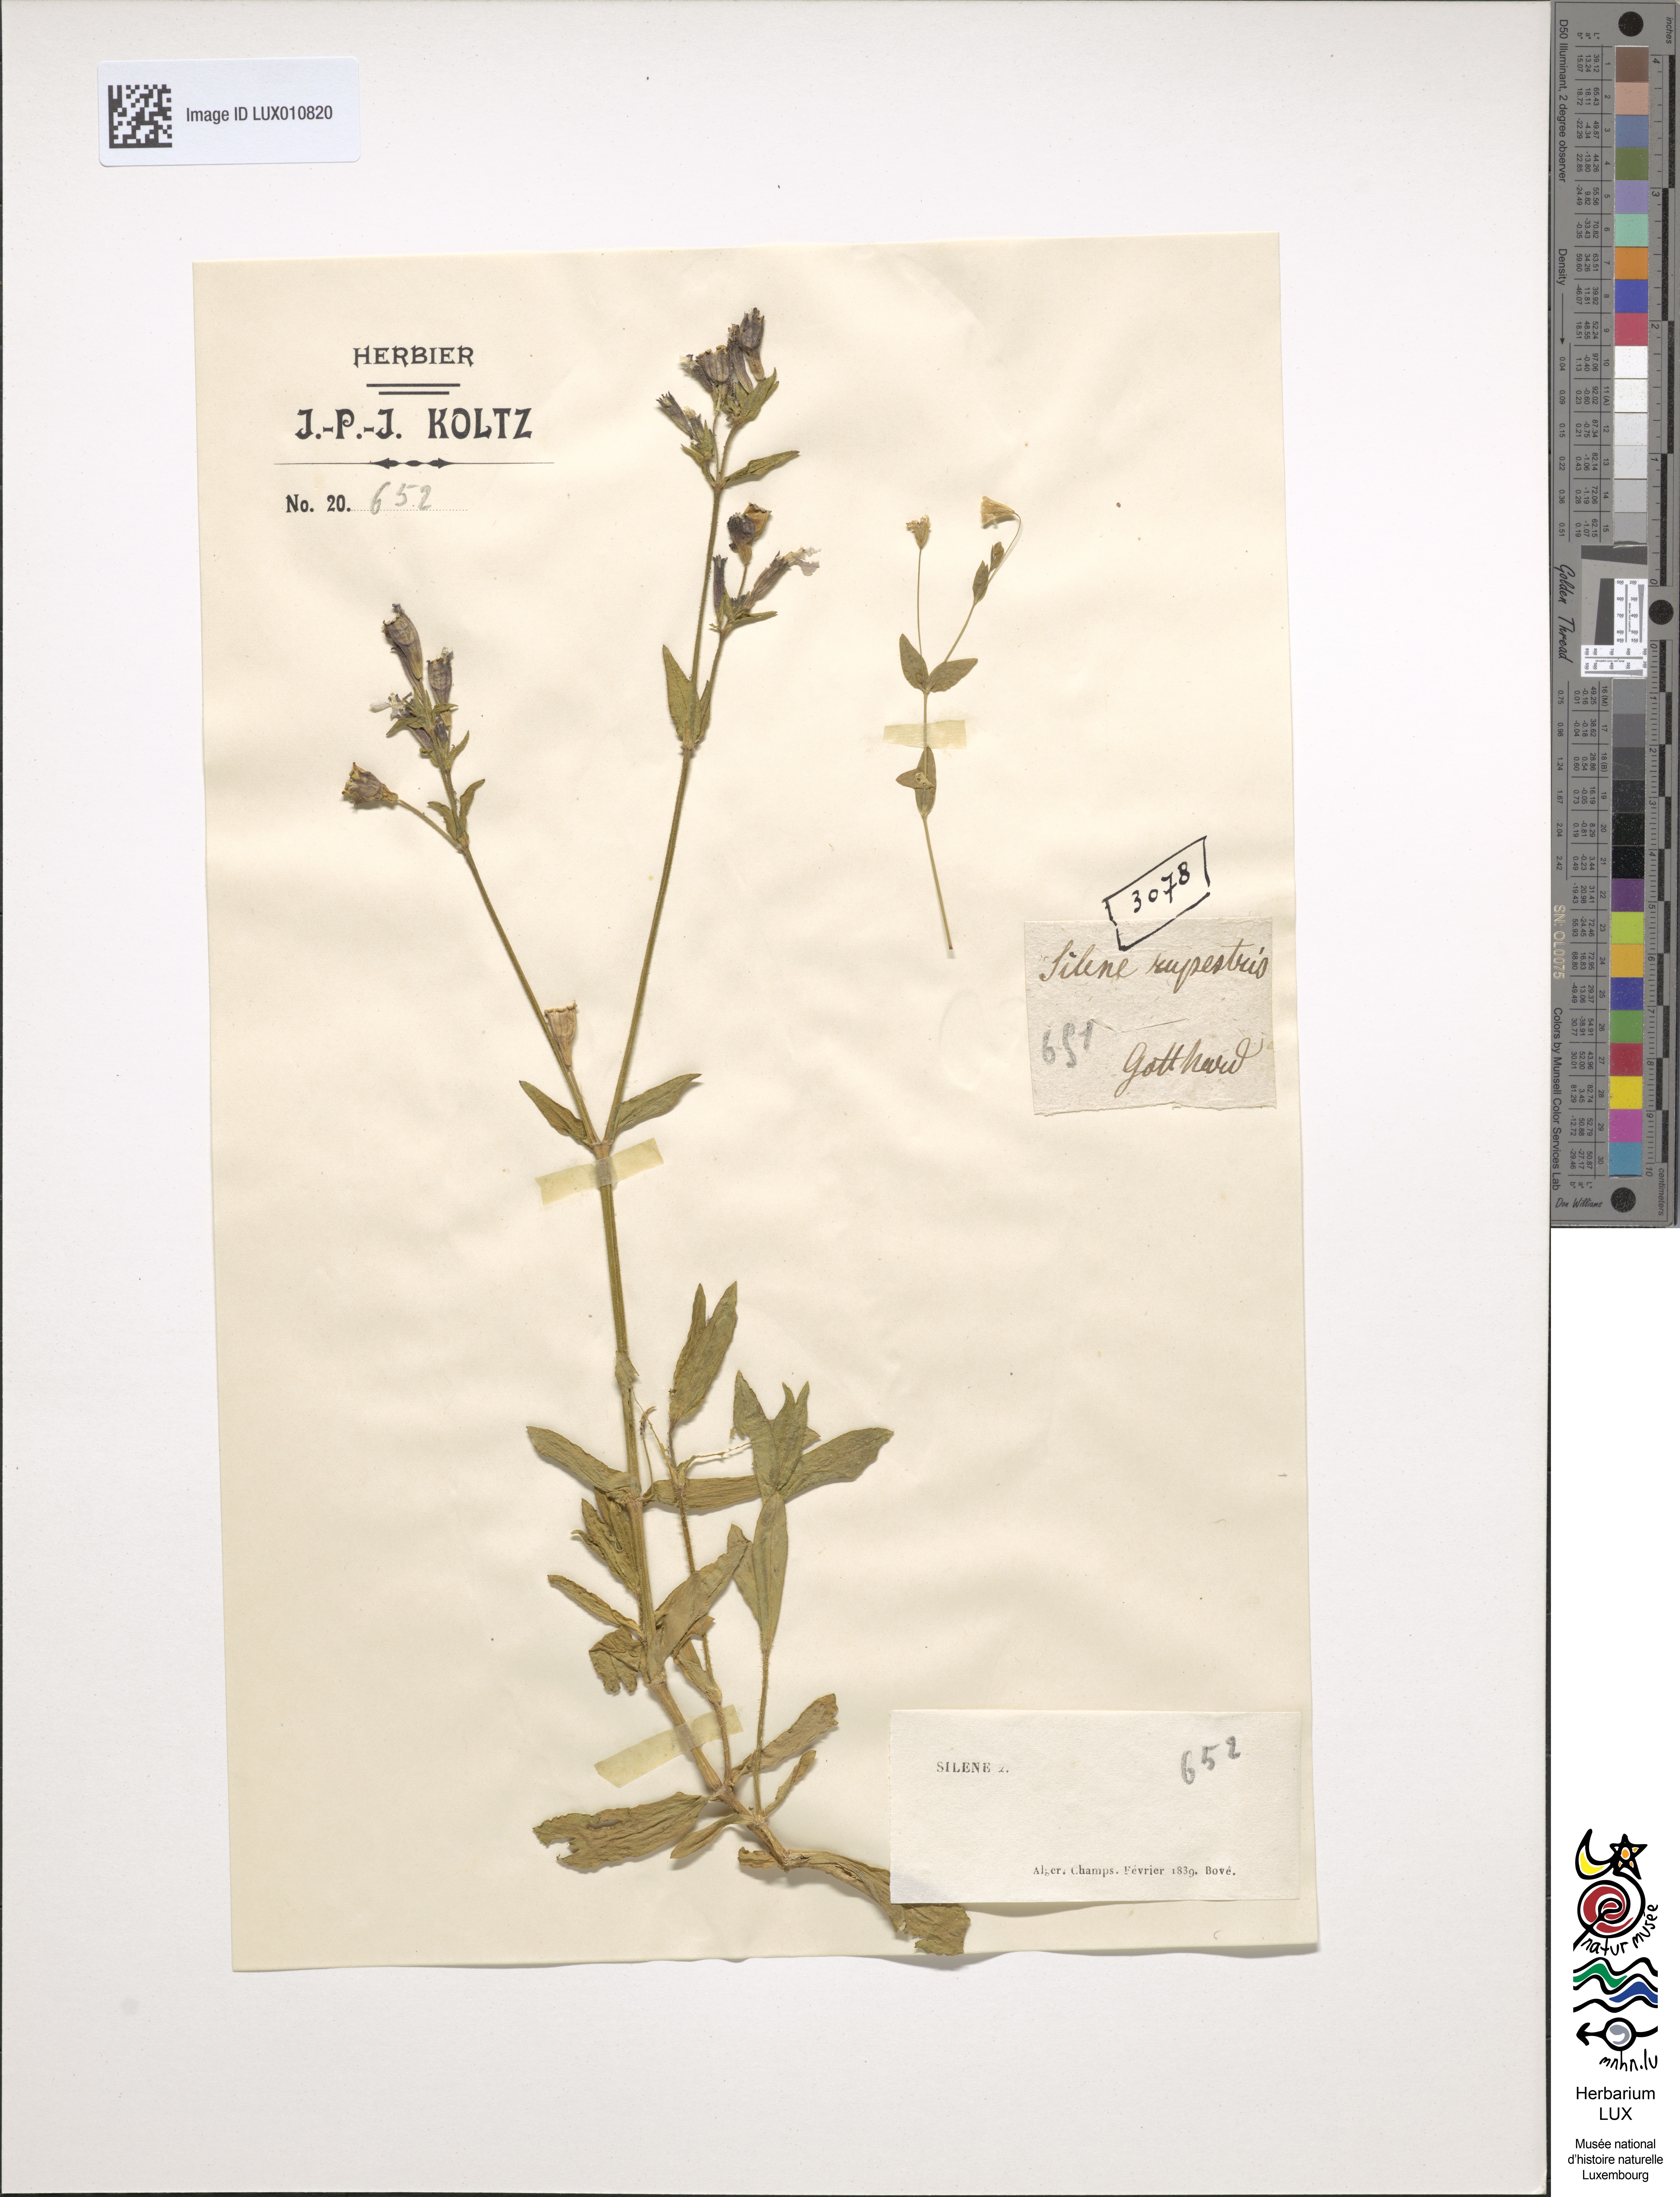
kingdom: Plantae
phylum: Tracheophyta
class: Magnoliopsida
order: Caryophyllales
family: Caryophyllaceae
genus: Atocion
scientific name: Atocion rupestre
